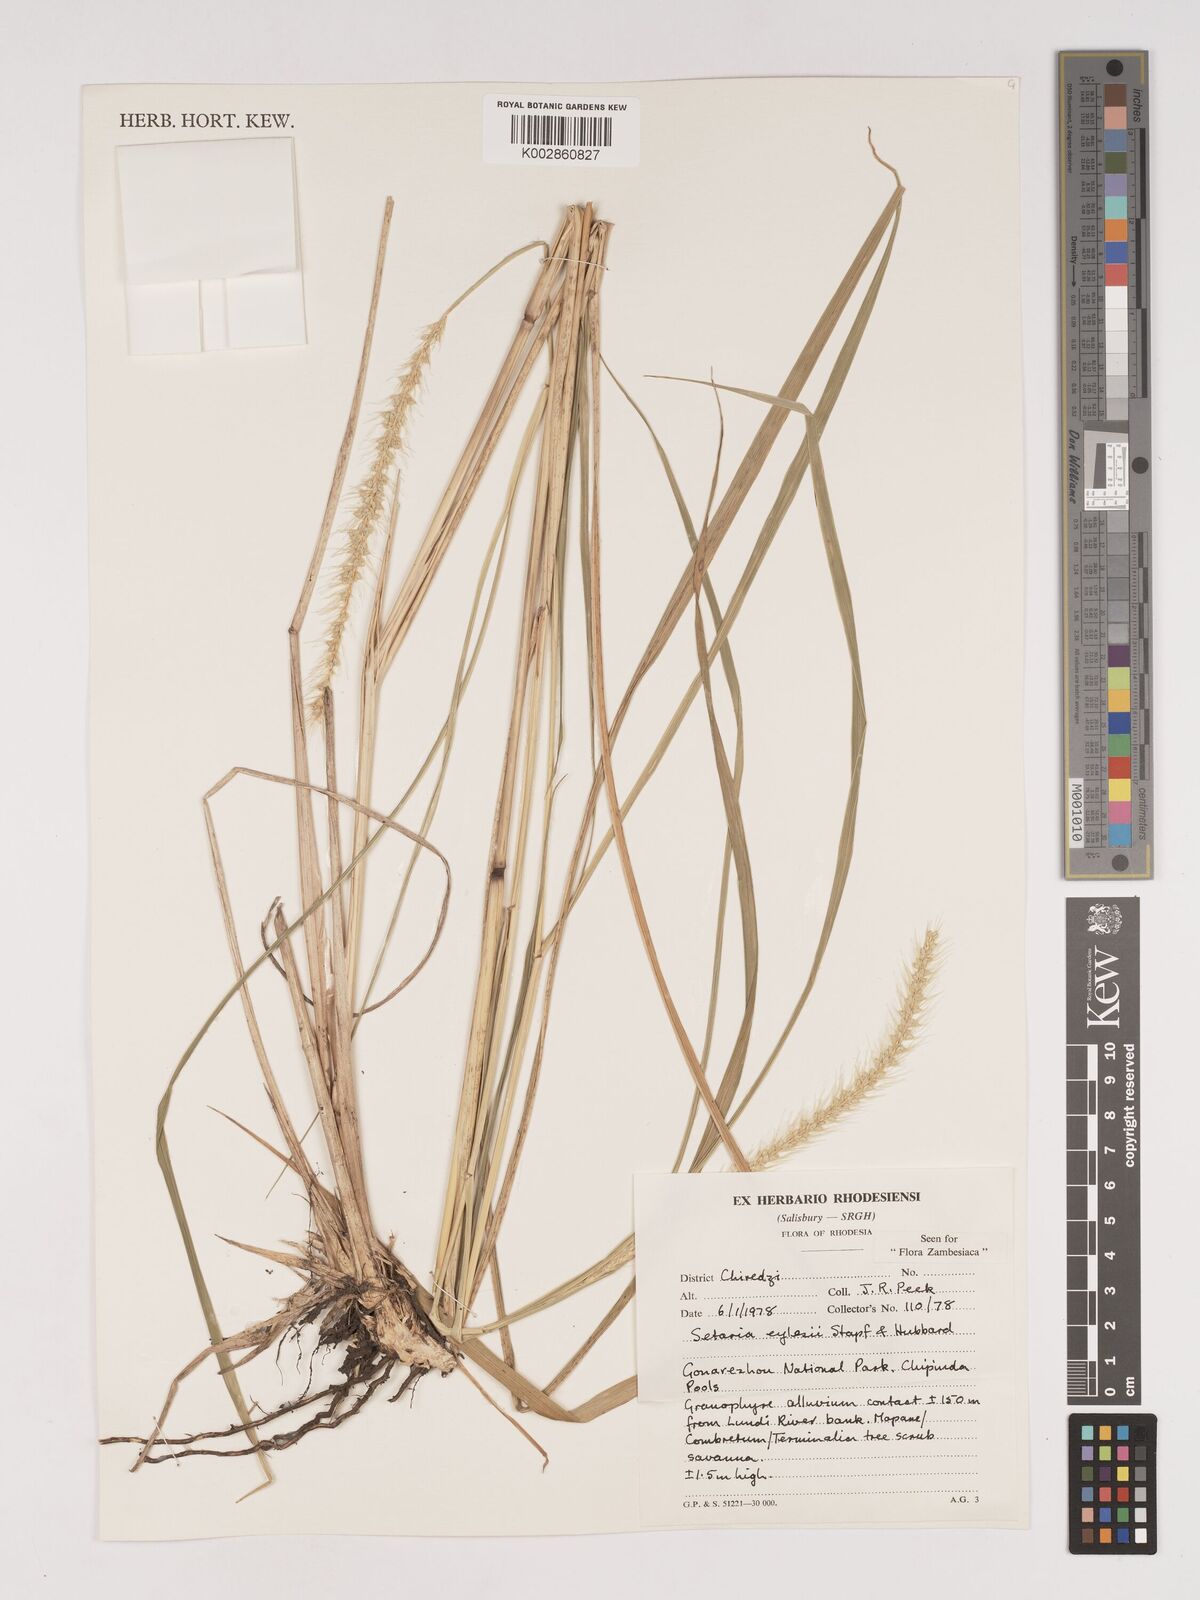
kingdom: Plantae
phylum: Tracheophyta
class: Liliopsida
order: Poales
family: Poaceae
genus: Setaria
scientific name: Setaria incrassata
